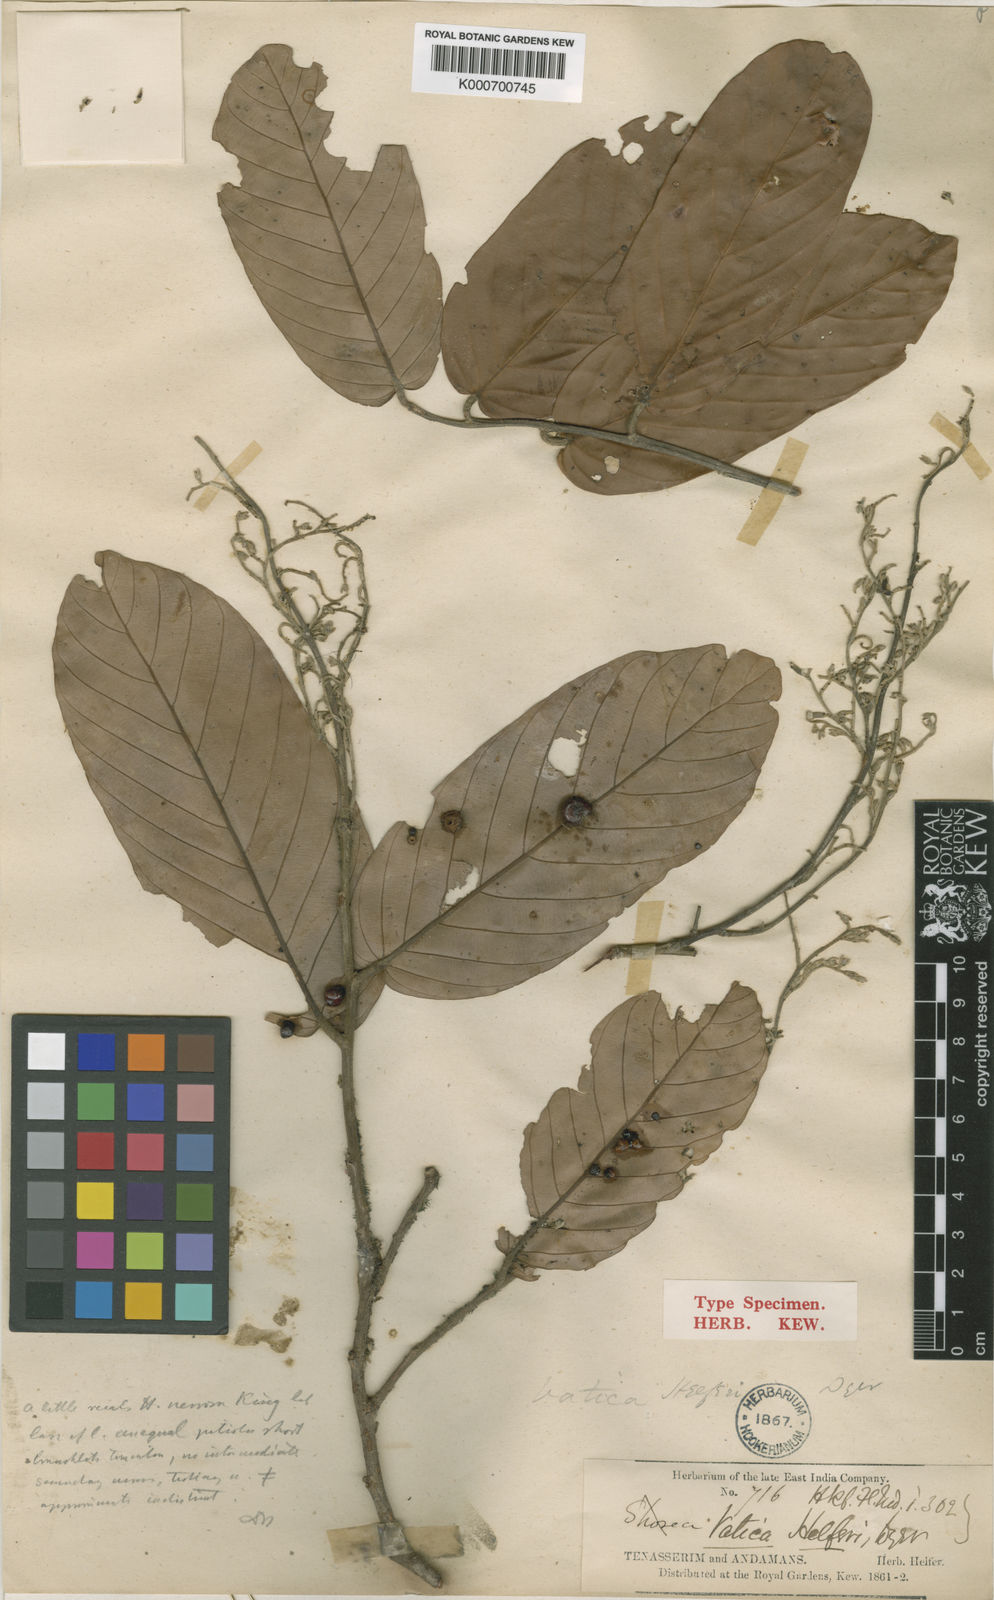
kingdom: Plantae
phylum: Tracheophyta
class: Magnoliopsida
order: Malvales
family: Dipterocarpaceae
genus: Hopea
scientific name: Hopea helferi
